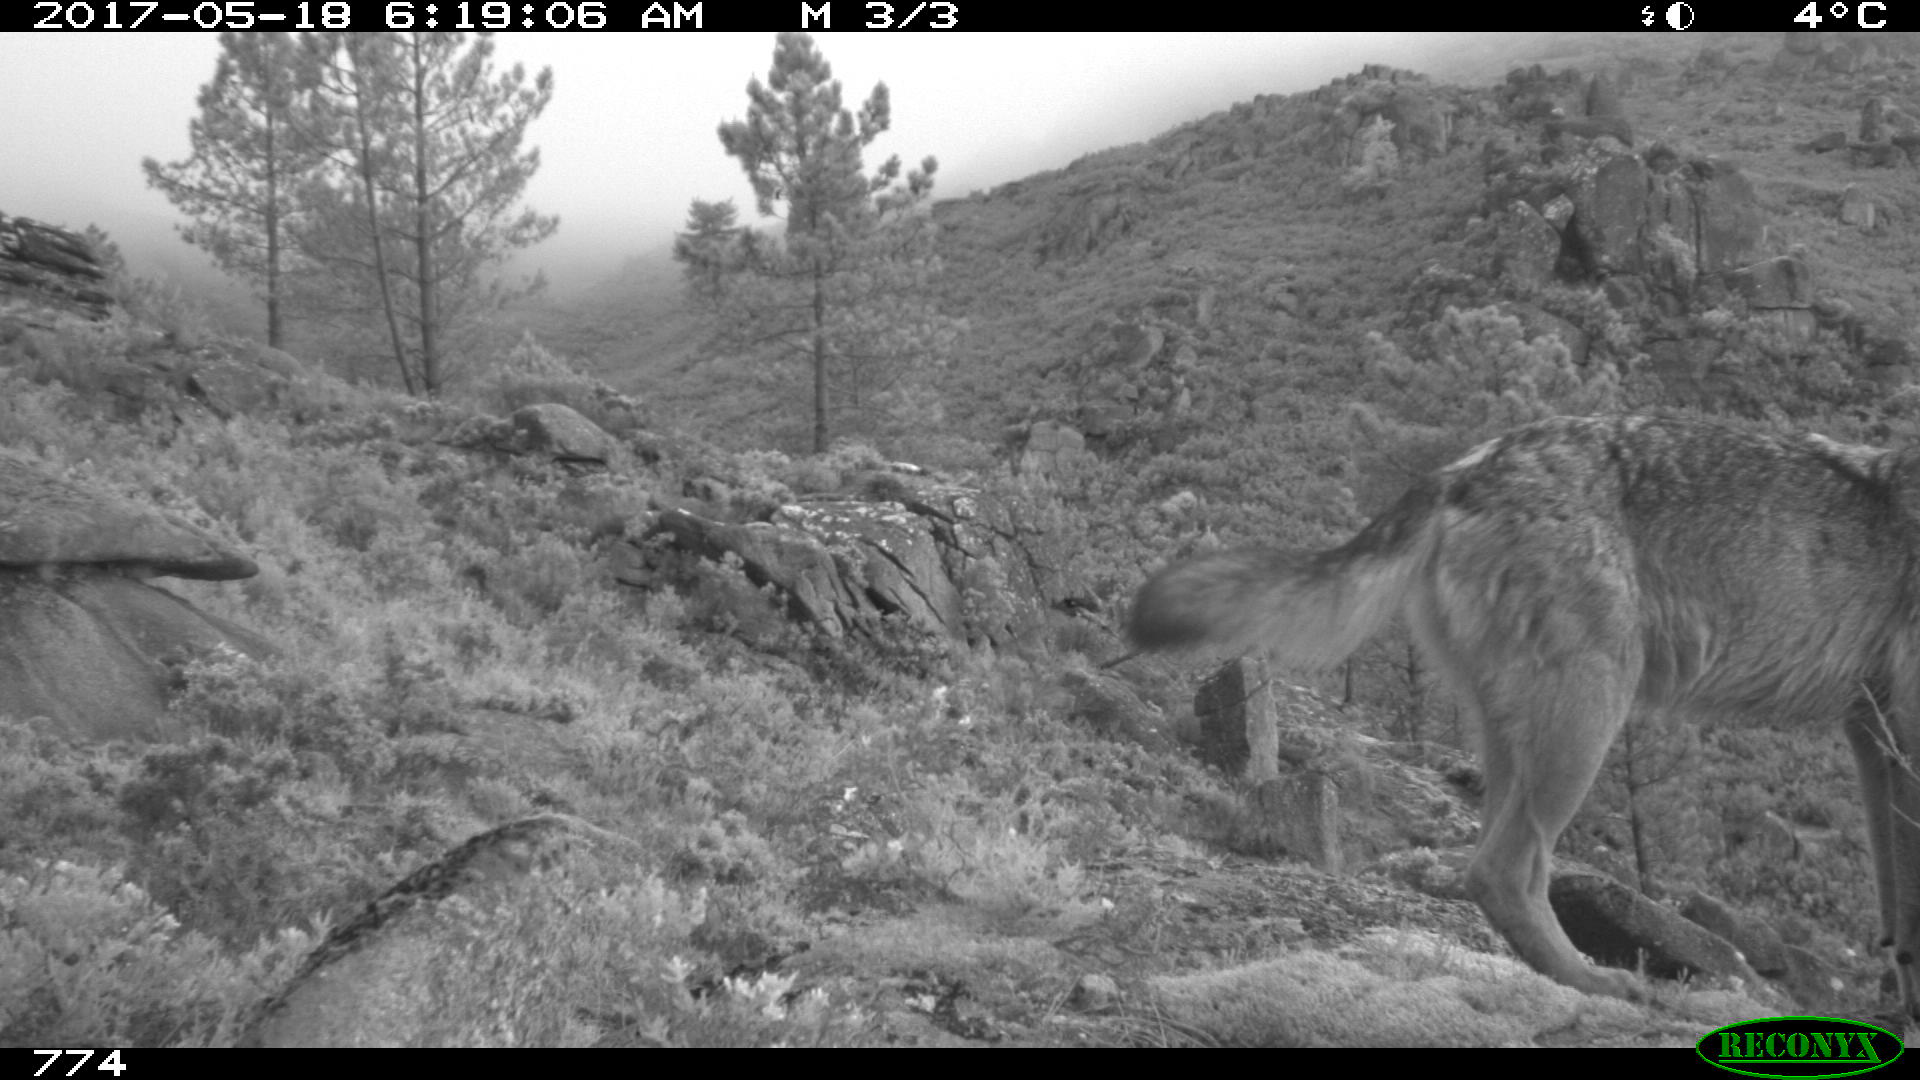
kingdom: Animalia
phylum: Chordata
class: Mammalia
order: Carnivora
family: Canidae
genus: Canis
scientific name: Canis lupus
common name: Gray wolf
